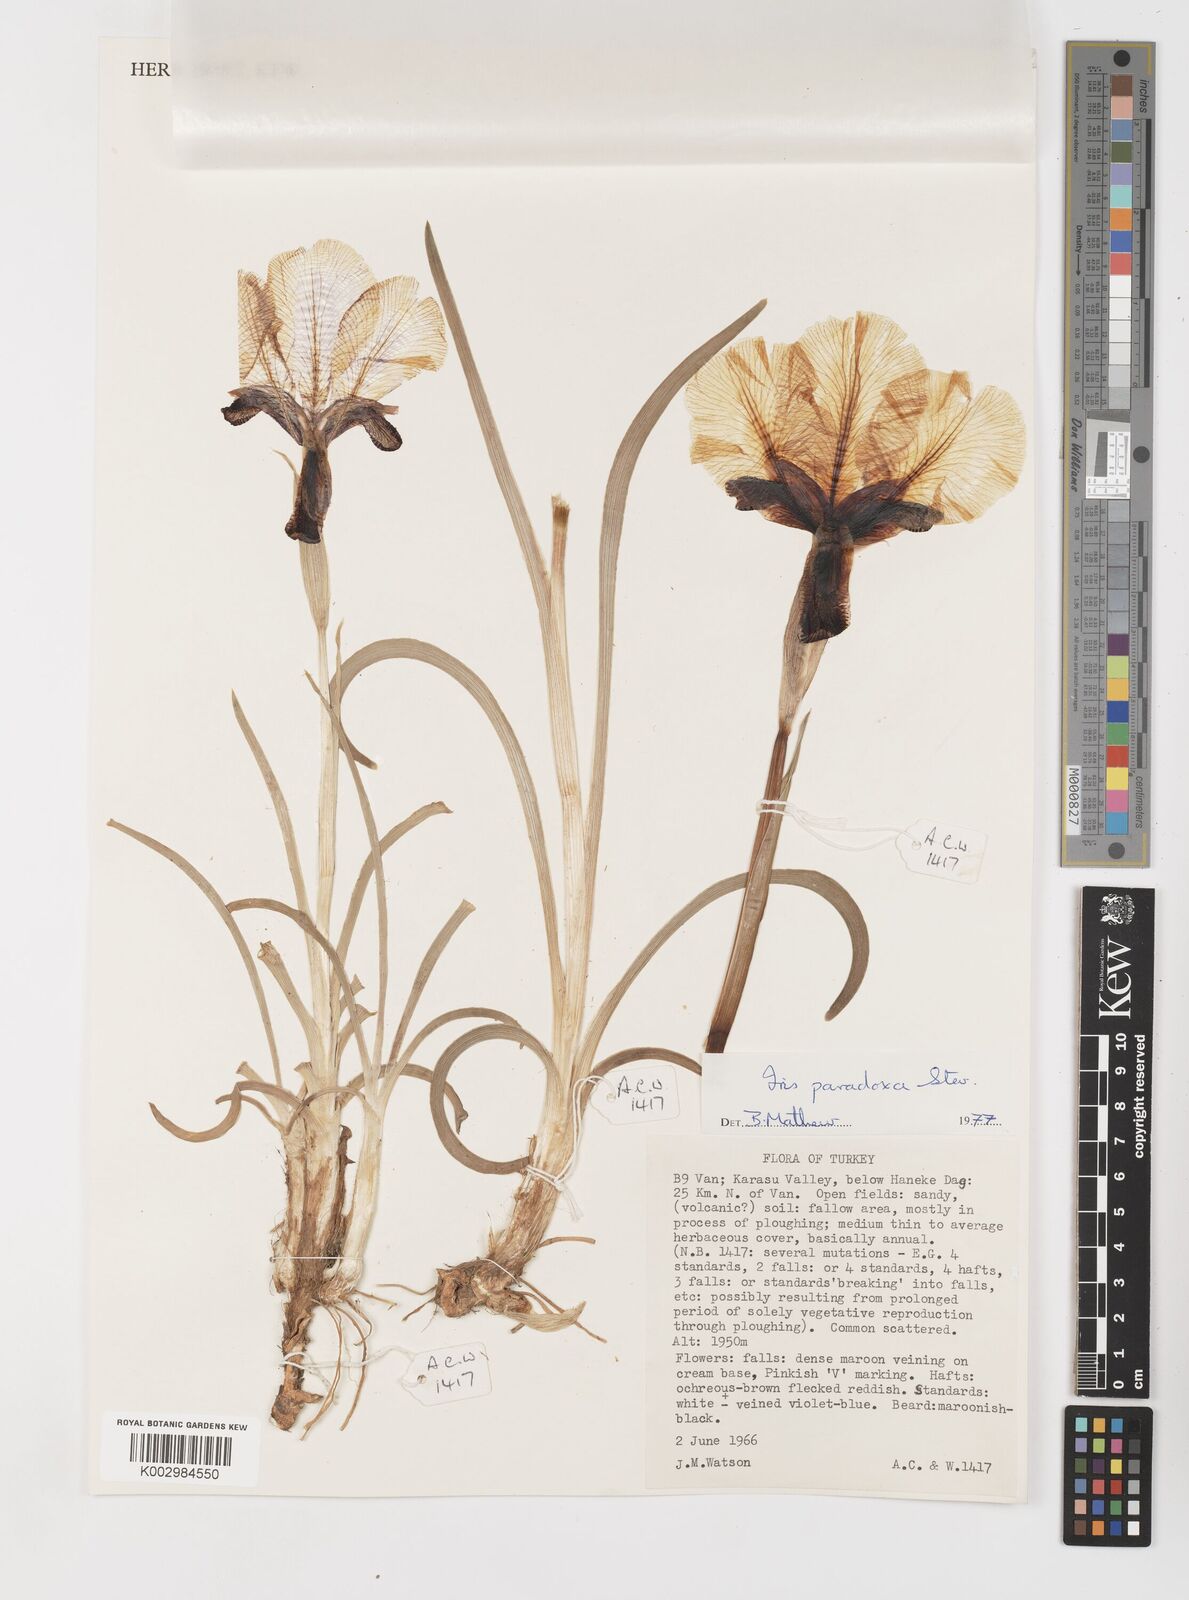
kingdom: Plantae
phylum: Tracheophyta
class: Liliopsida
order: Asparagales
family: Iridaceae
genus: Iris
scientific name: Iris paradoxa
